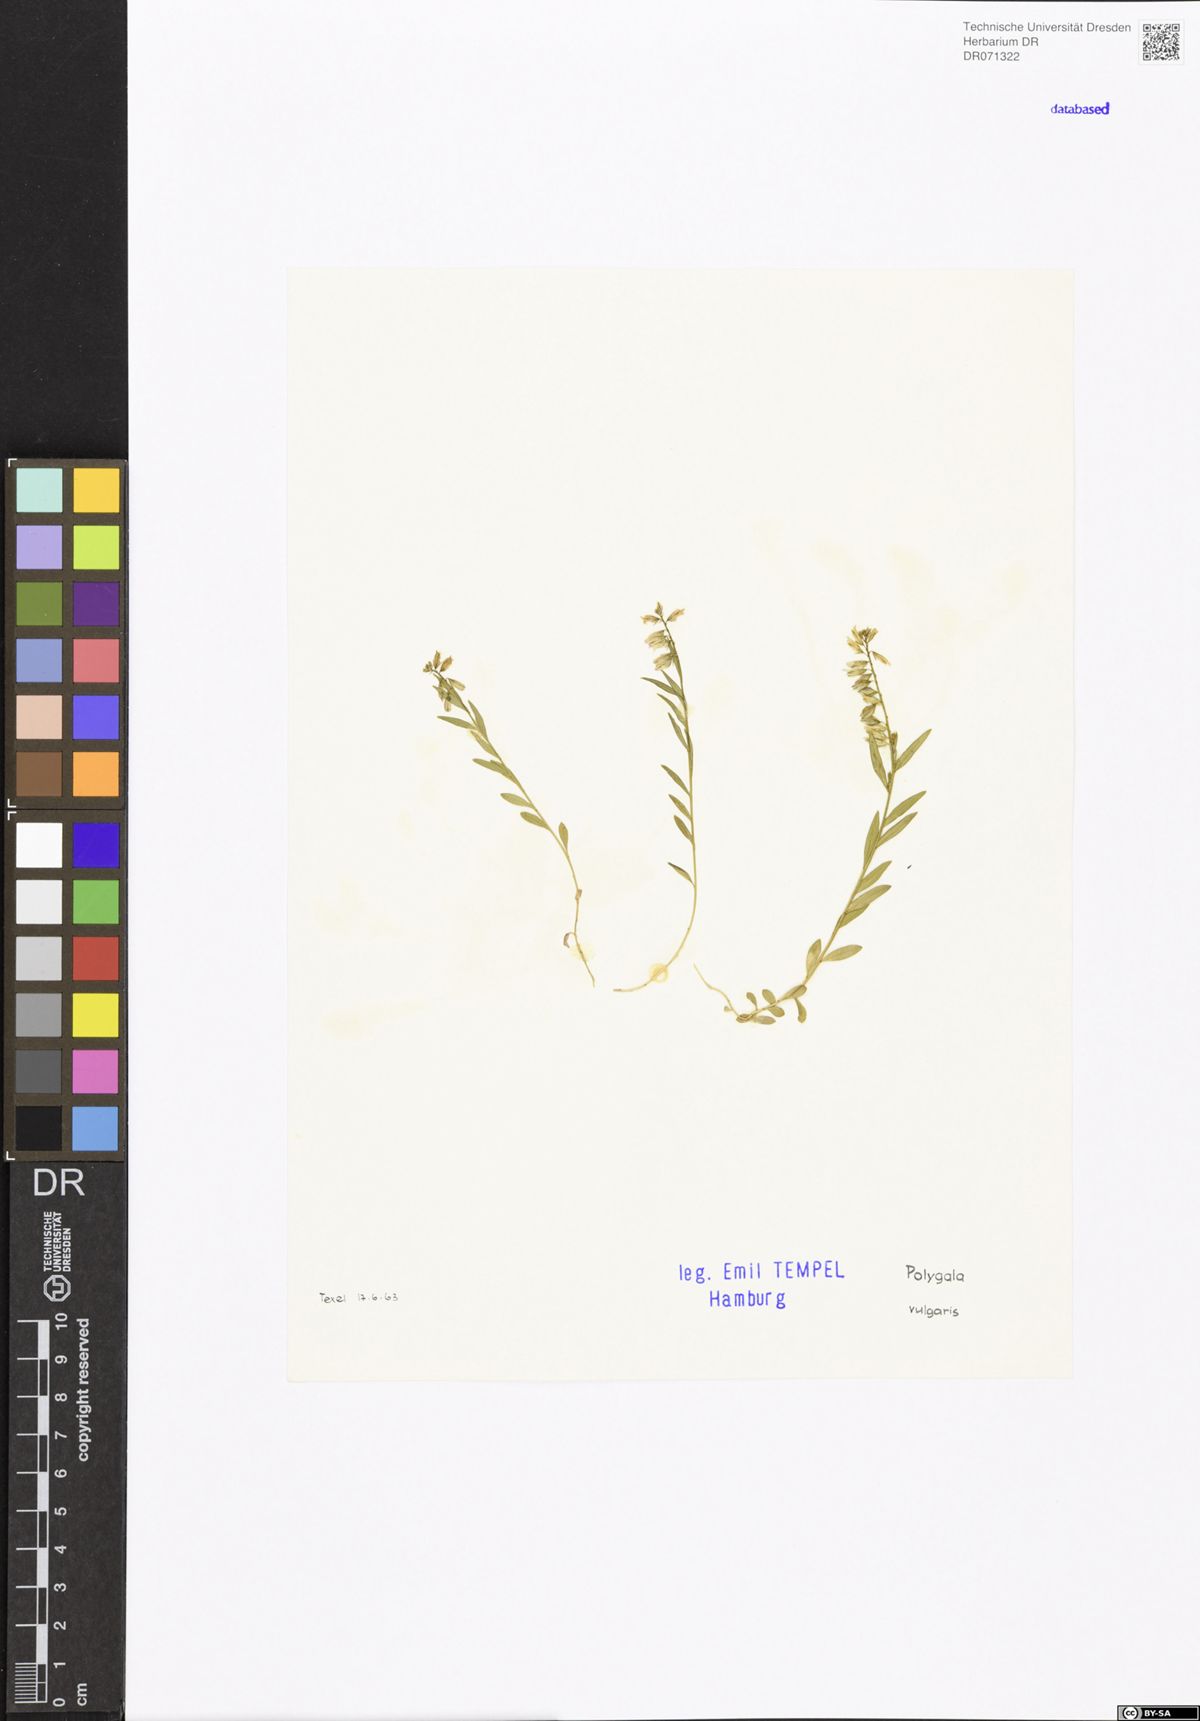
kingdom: Plantae
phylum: Tracheophyta
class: Magnoliopsida
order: Fabales
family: Polygalaceae
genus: Polygala
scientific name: Polygala vulgaris
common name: Common milkwort
